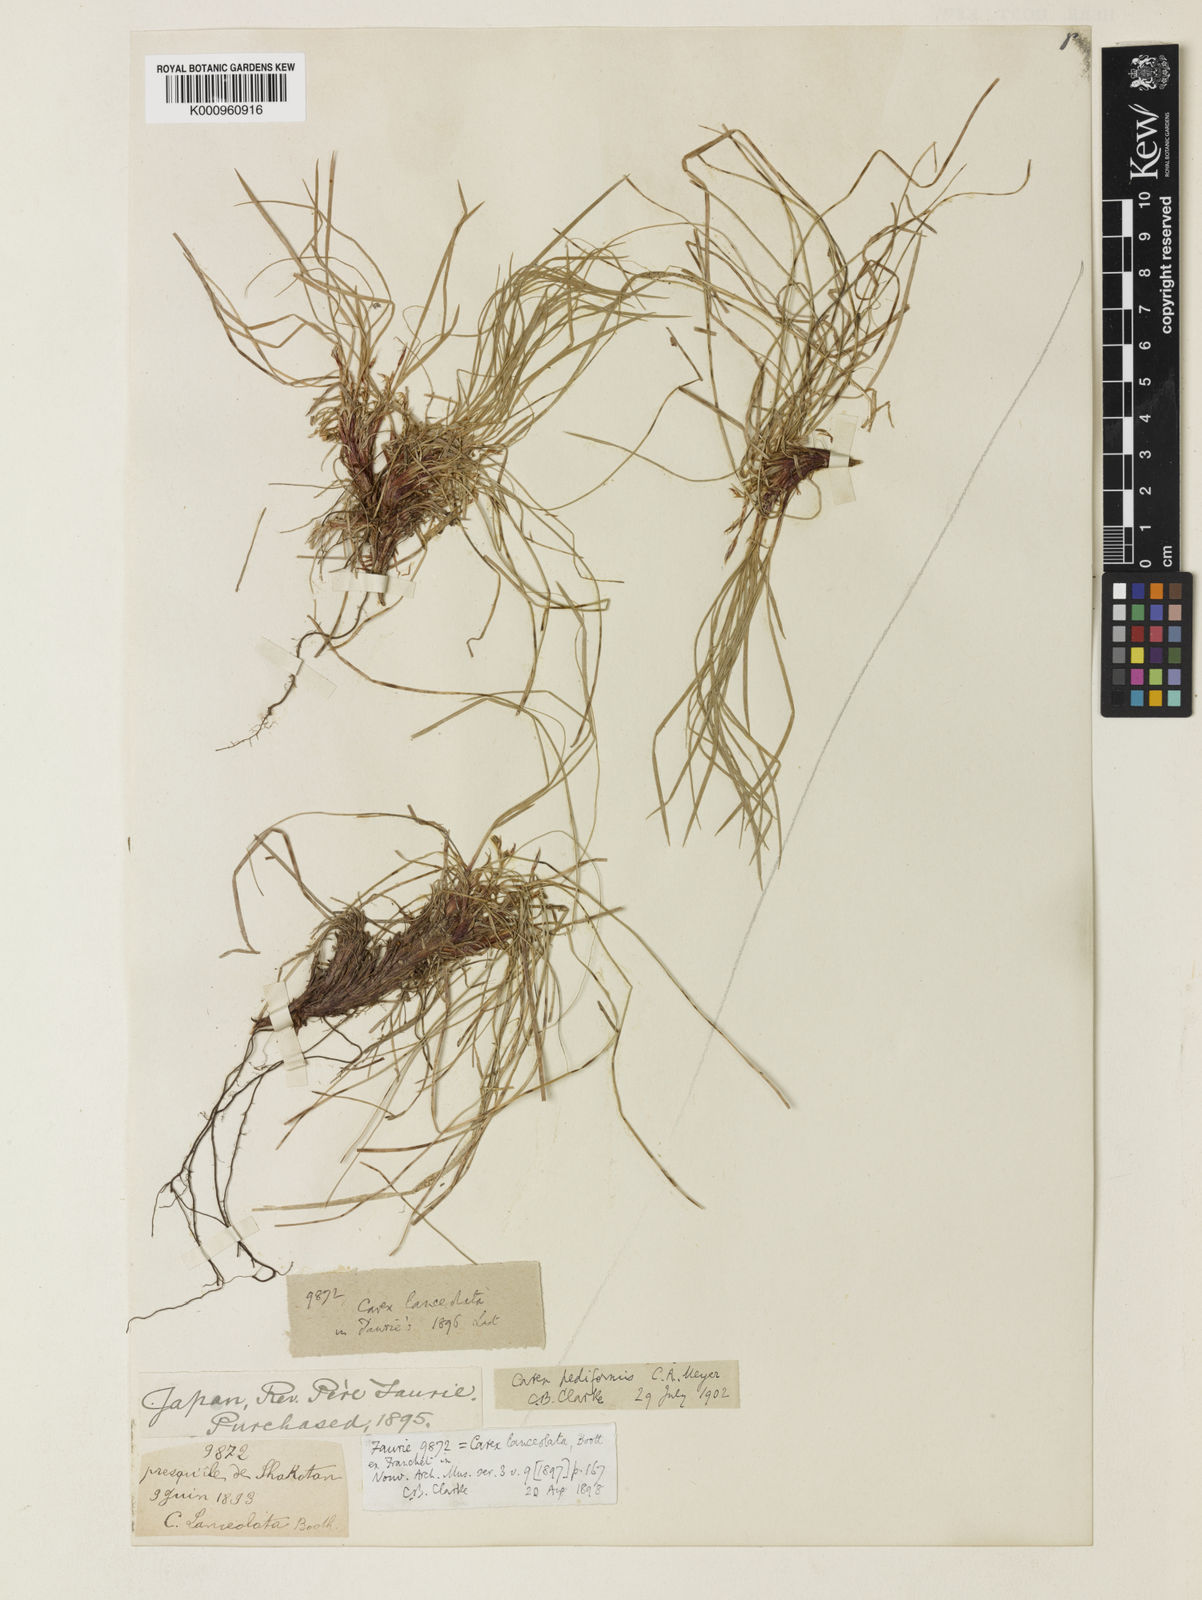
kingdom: Plantae
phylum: Tracheophyta
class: Liliopsida
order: Poales
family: Cyperaceae
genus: Carex
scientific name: Carex lanceolata
